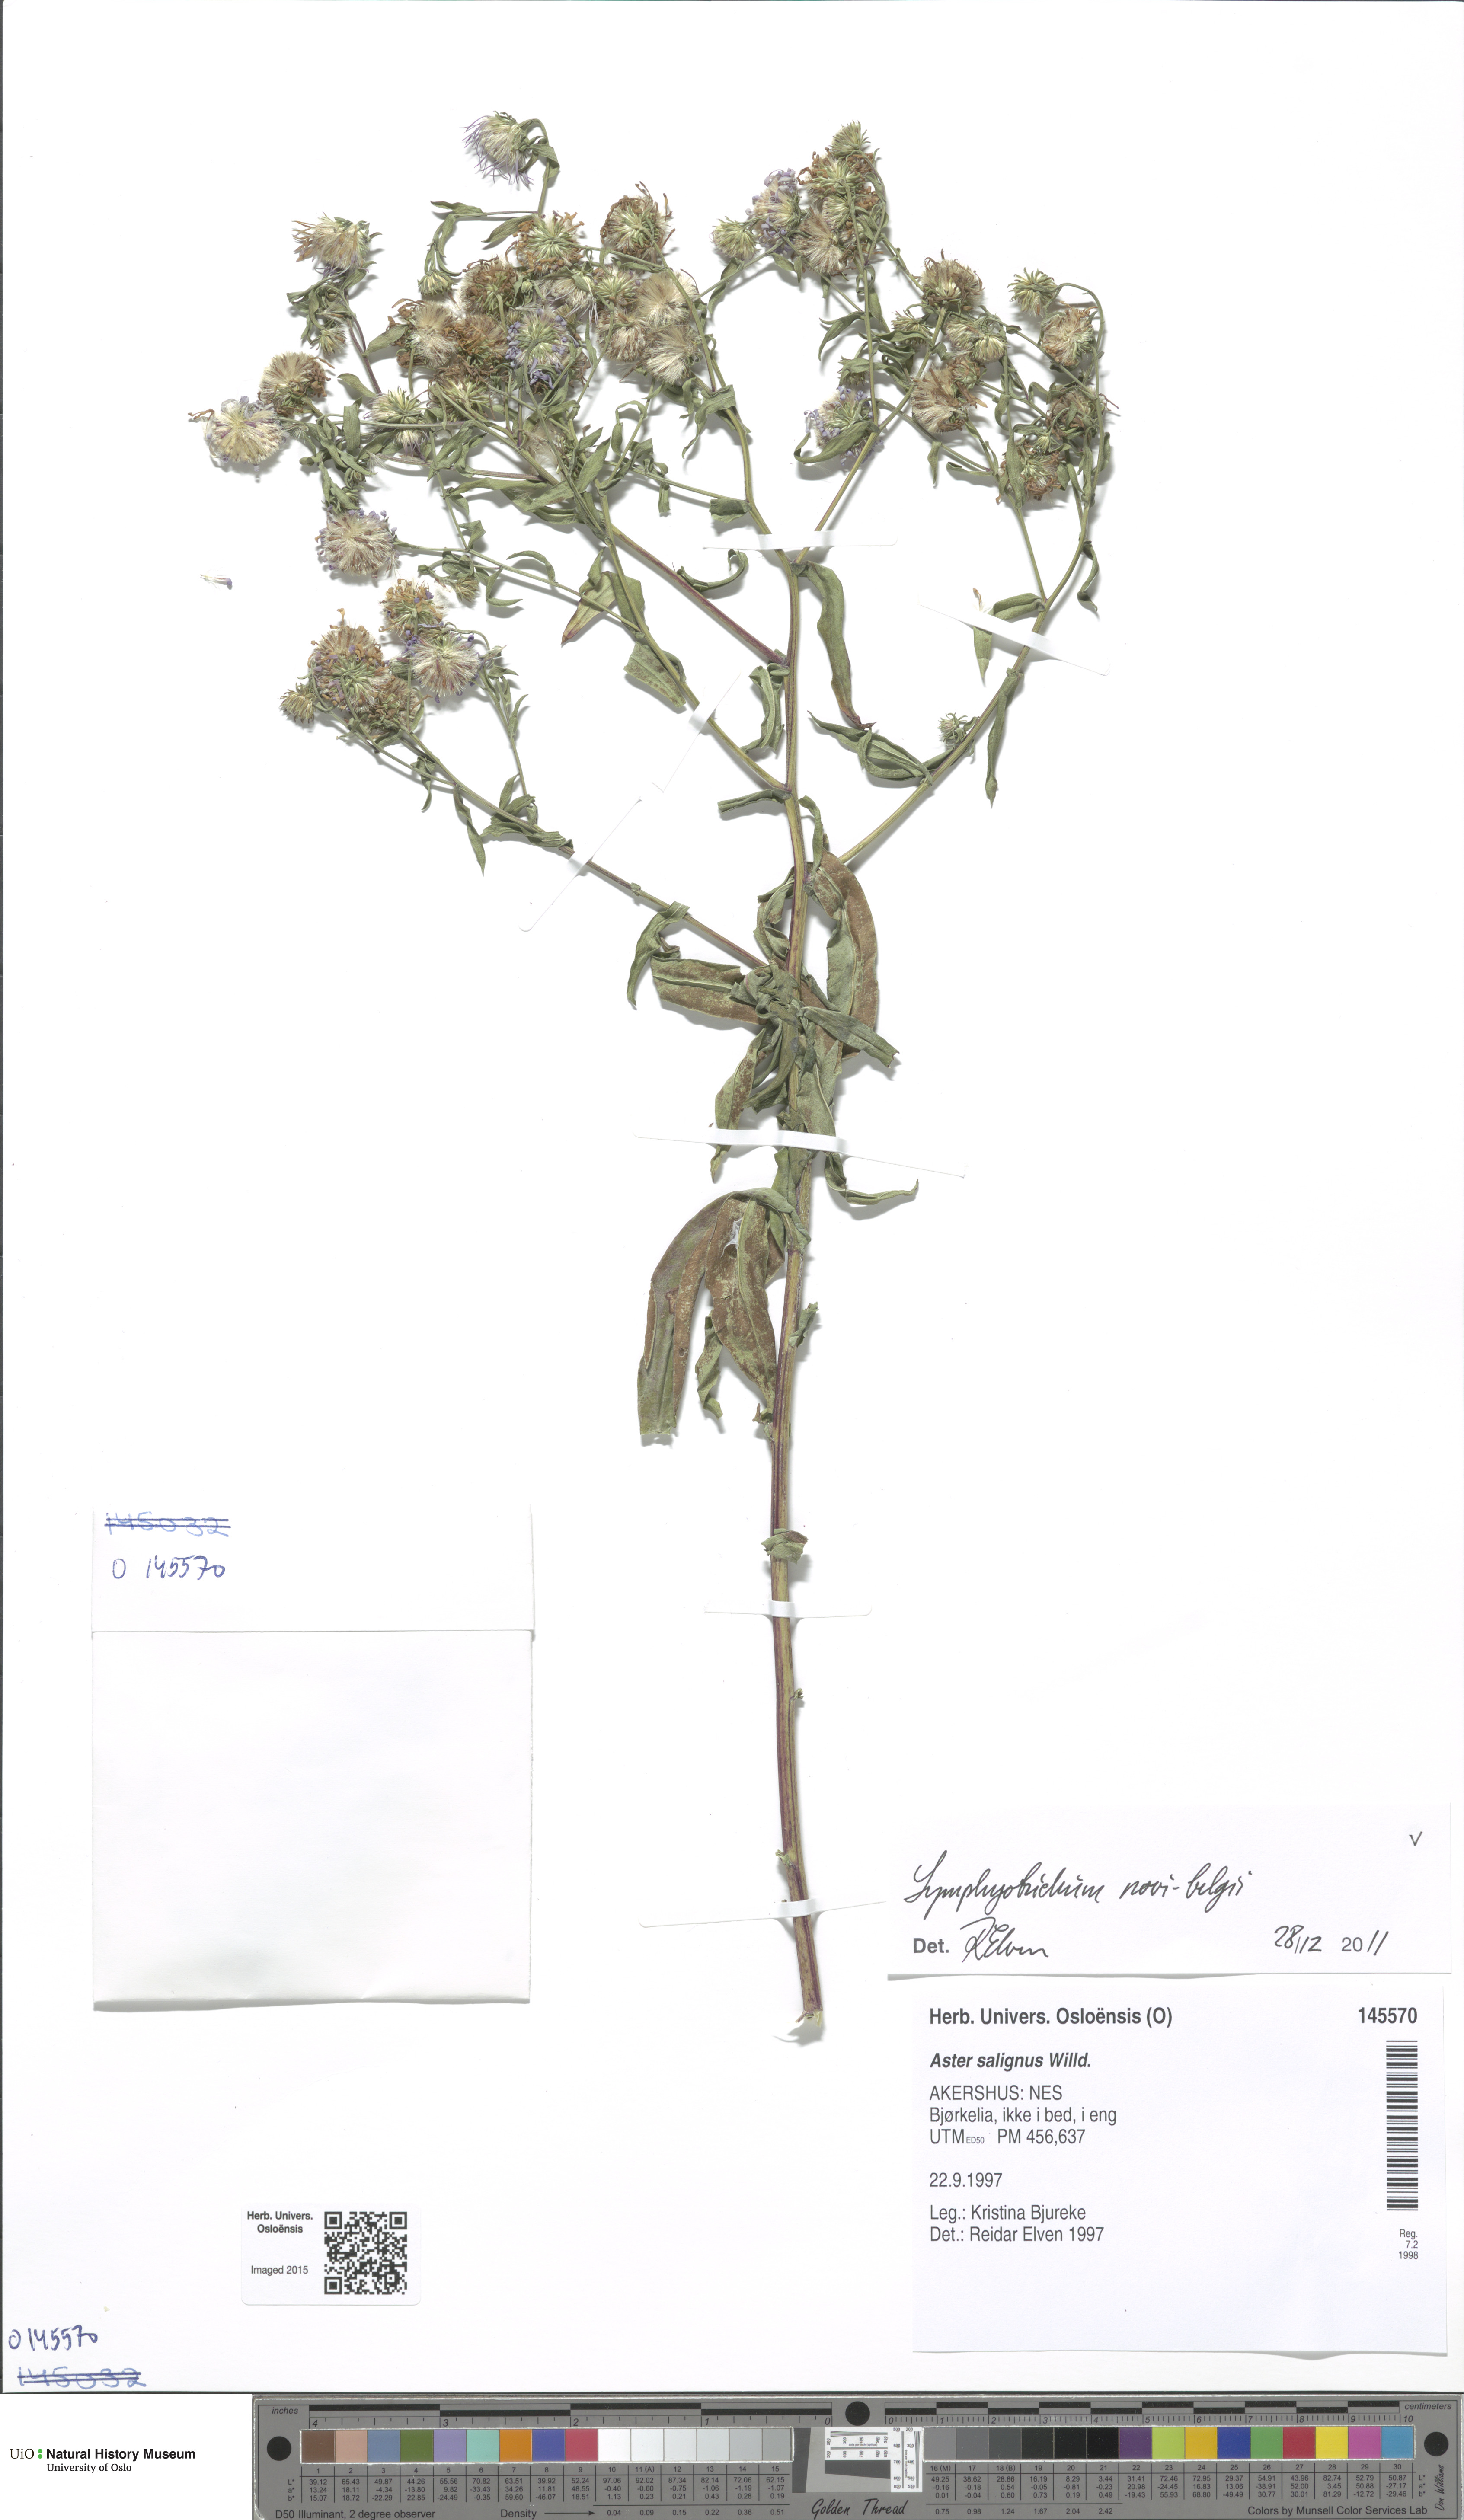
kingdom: Plantae
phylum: Tracheophyta
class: Magnoliopsida
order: Asterales
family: Asteraceae
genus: Symphyotrichum
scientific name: Symphyotrichum versicolor
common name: Late michaelmas daisy
